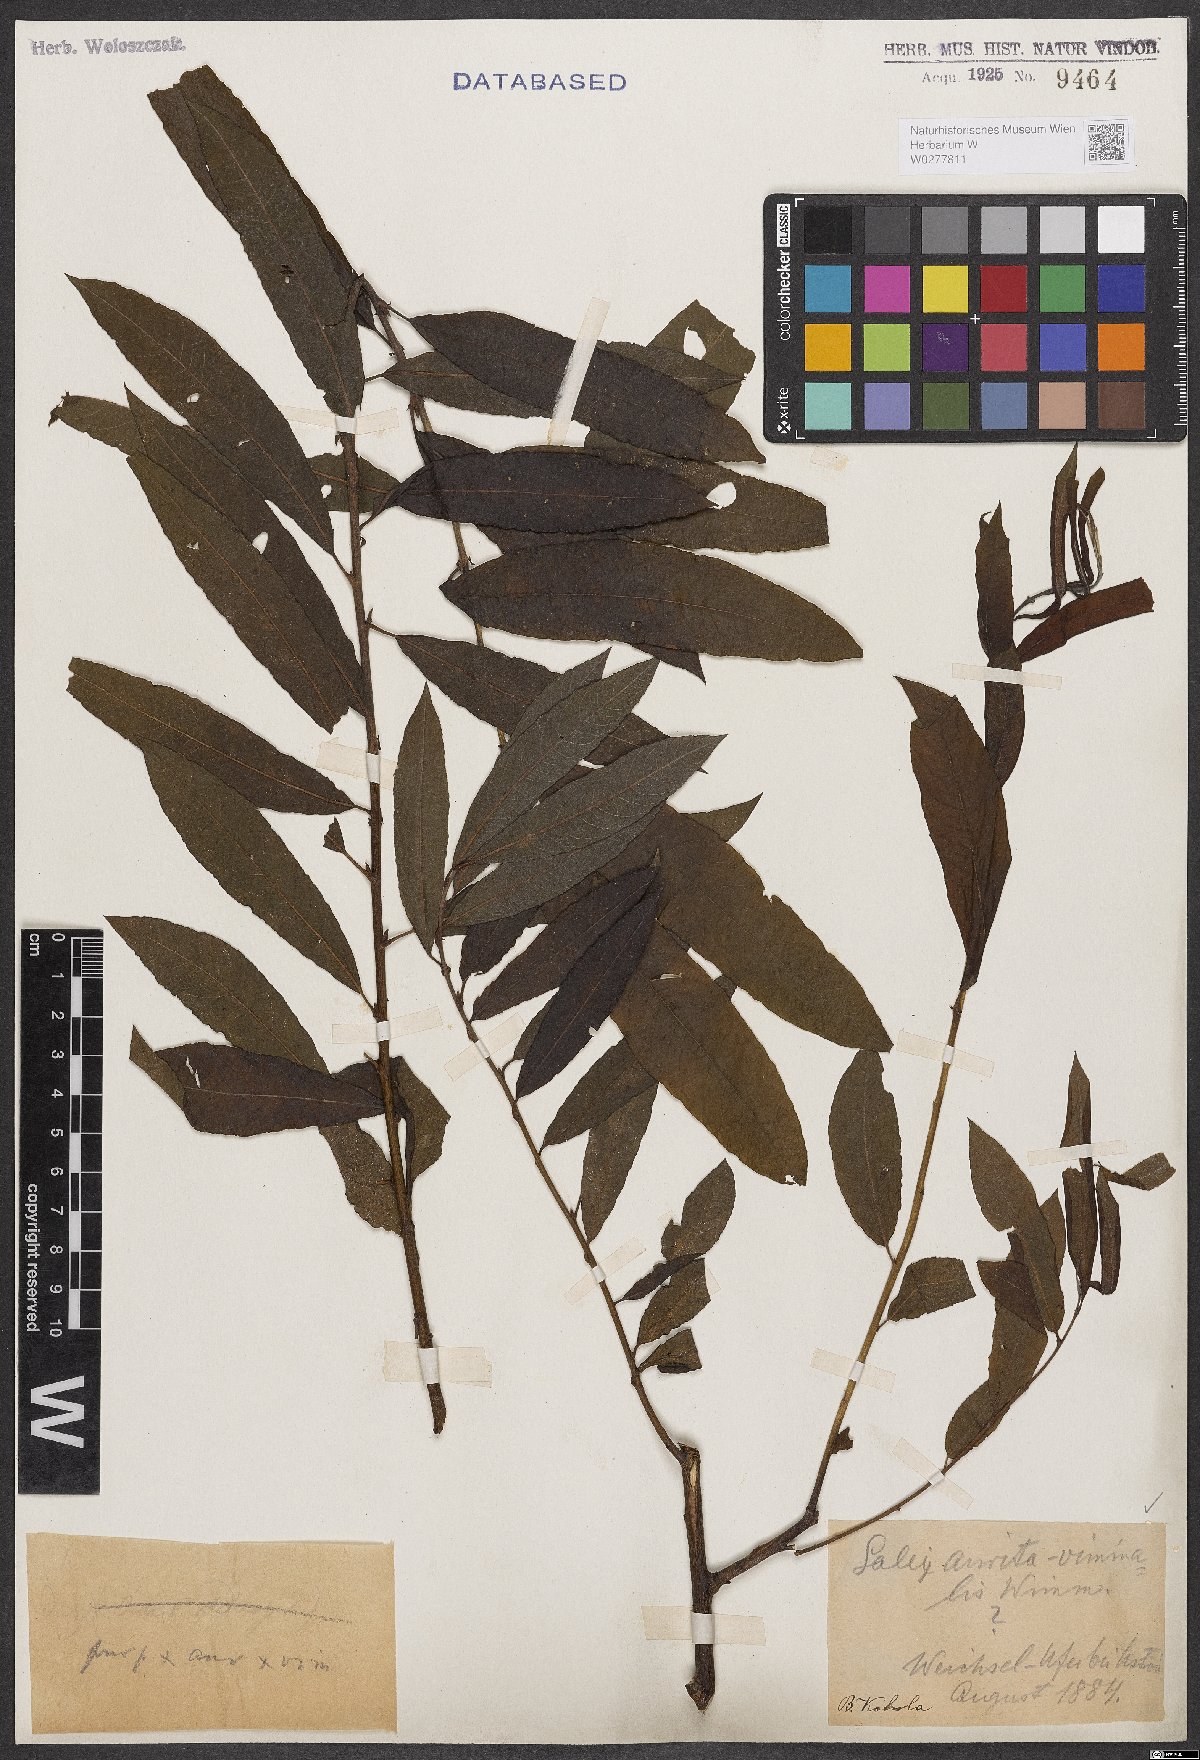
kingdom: Plantae
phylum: Tracheophyta
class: Magnoliopsida
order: Malpighiales
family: Salicaceae
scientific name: Salicaceae
